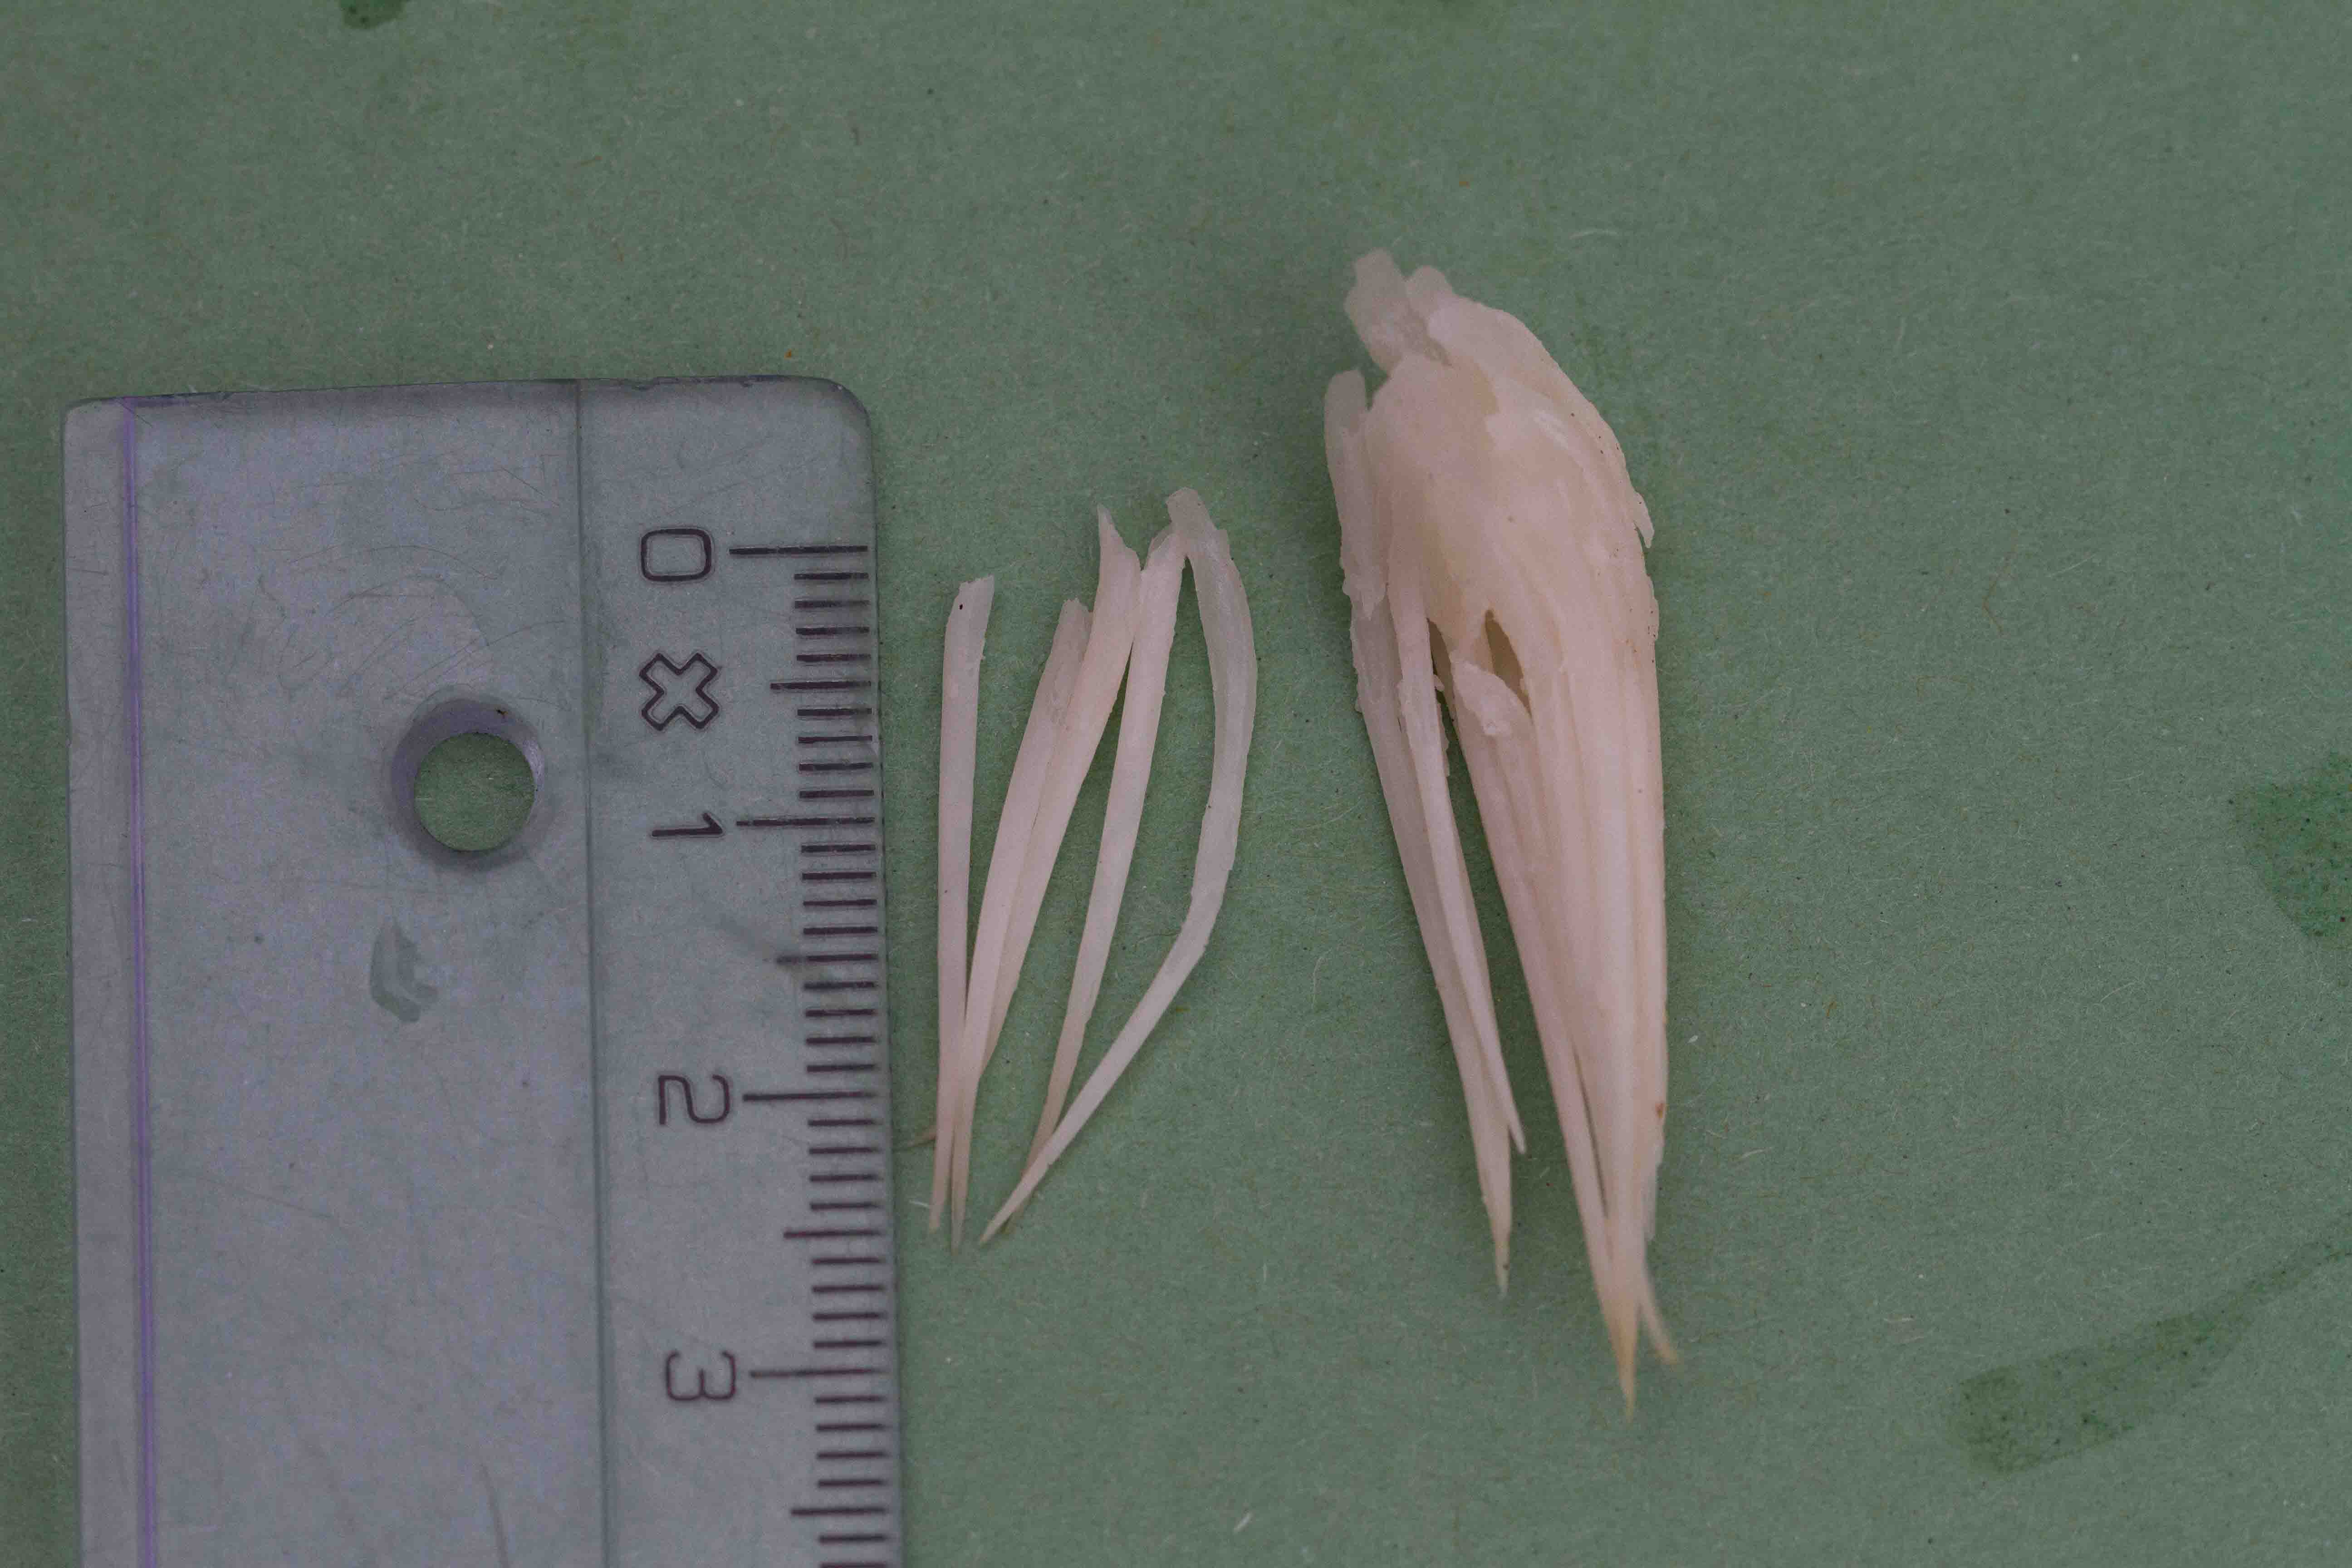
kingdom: Fungi
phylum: Basidiomycota
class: Agaricomycetes
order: Russulales
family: Hericiaceae
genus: Hericium
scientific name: Hericium erinaceus
